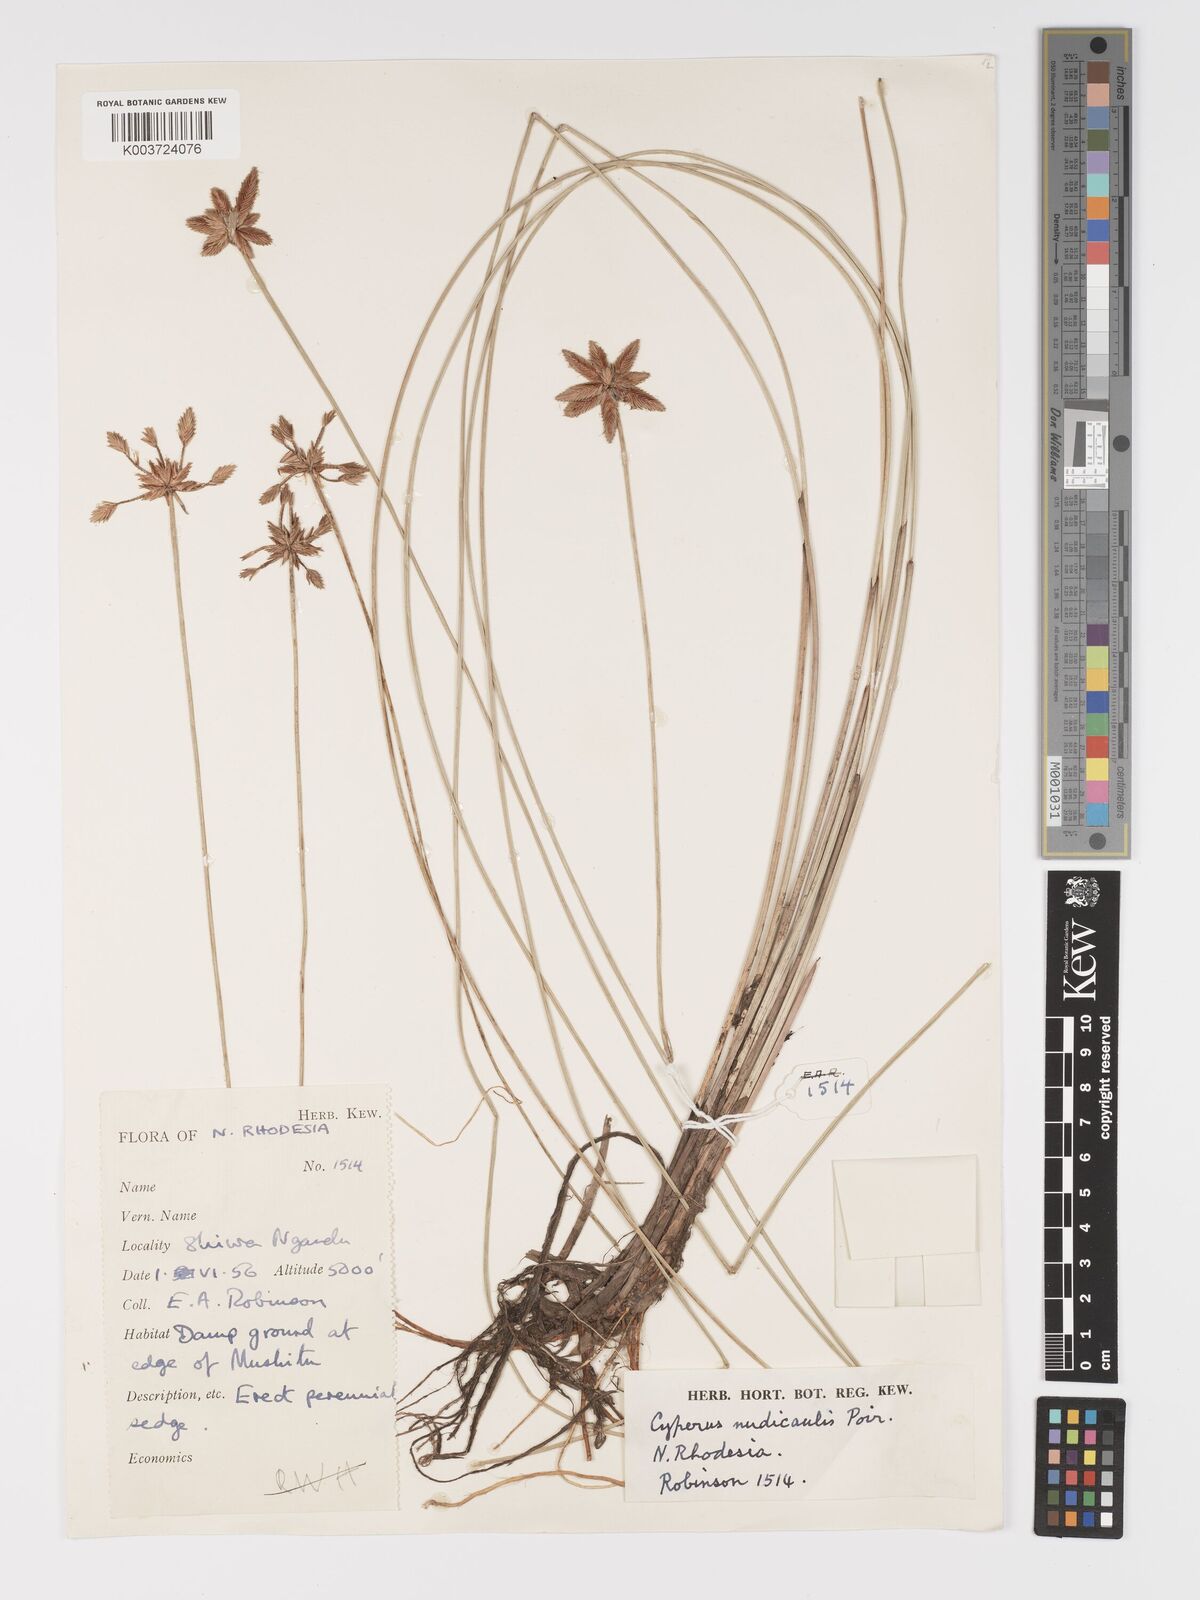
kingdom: Plantae
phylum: Tracheophyta
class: Liliopsida
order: Poales
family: Cyperaceae
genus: Cyperus
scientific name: Cyperus compressus
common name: Poorland flatsedge
